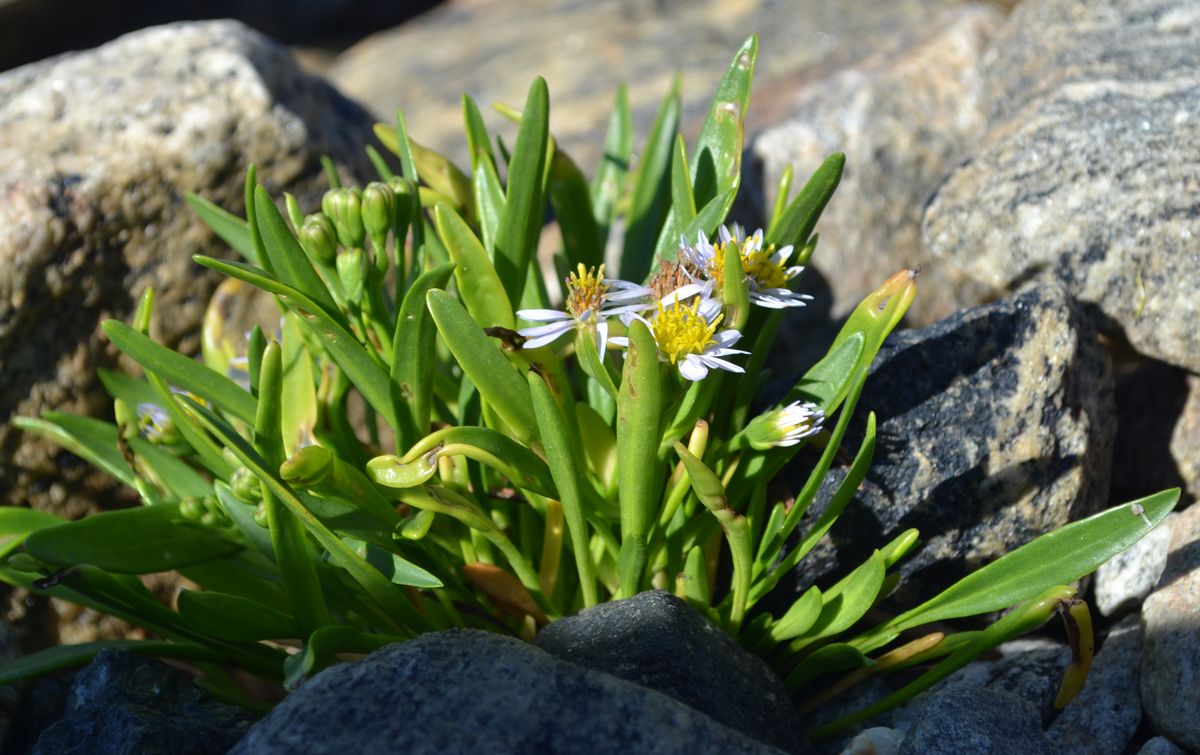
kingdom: Plantae
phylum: Tracheophyta
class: Magnoliopsida
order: Asterales
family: Asteraceae
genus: Tripolium
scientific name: Tripolium pannonicum
